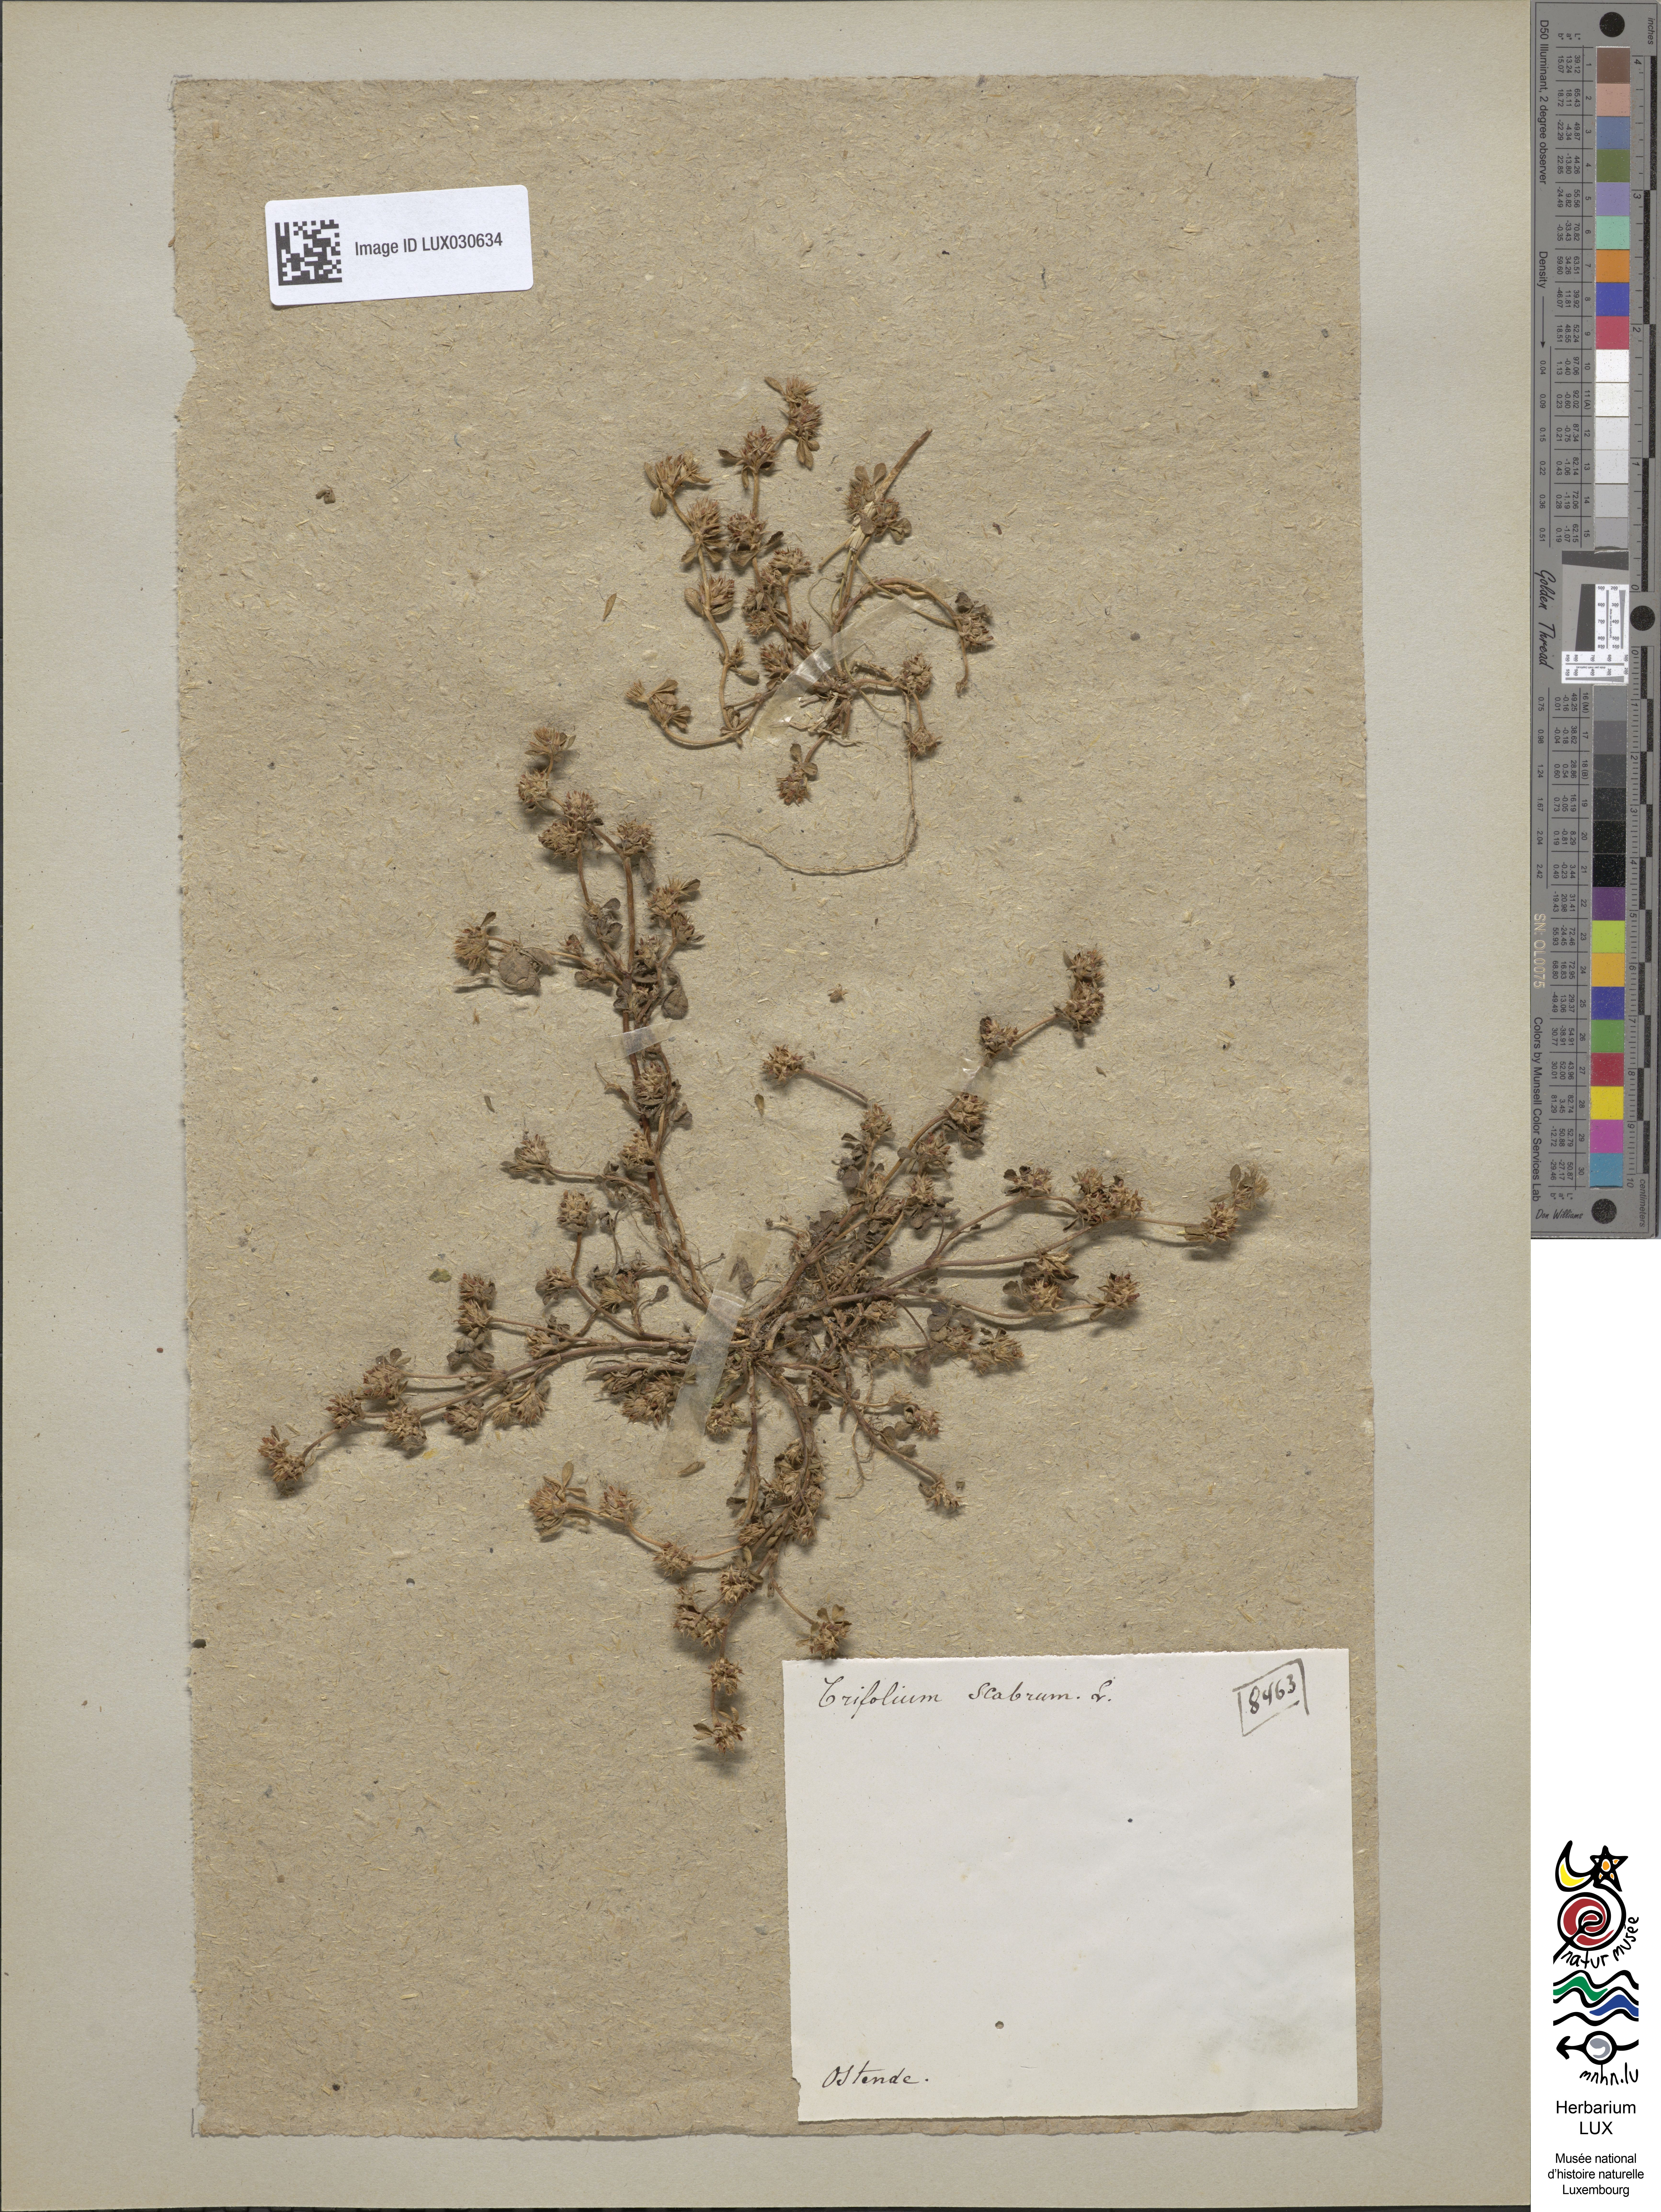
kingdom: Plantae
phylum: Tracheophyta
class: Magnoliopsida
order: Fabales
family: Fabaceae
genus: Trifolium
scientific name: Trifolium scabrum
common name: Rough clover
